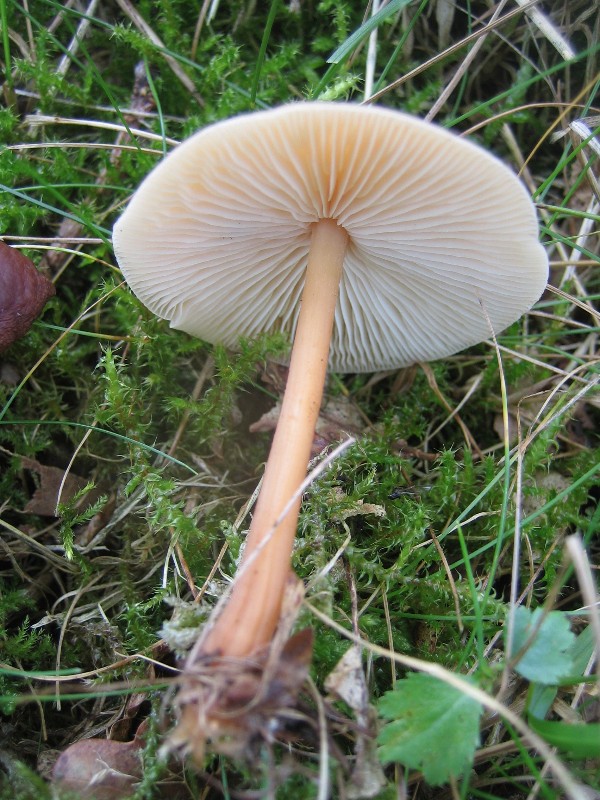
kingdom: Fungi
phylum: Basidiomycota
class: Agaricomycetes
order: Agaricales
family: Omphalotaceae
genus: Gymnopus
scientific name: Gymnopus dryophilus
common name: løv-fladhat
